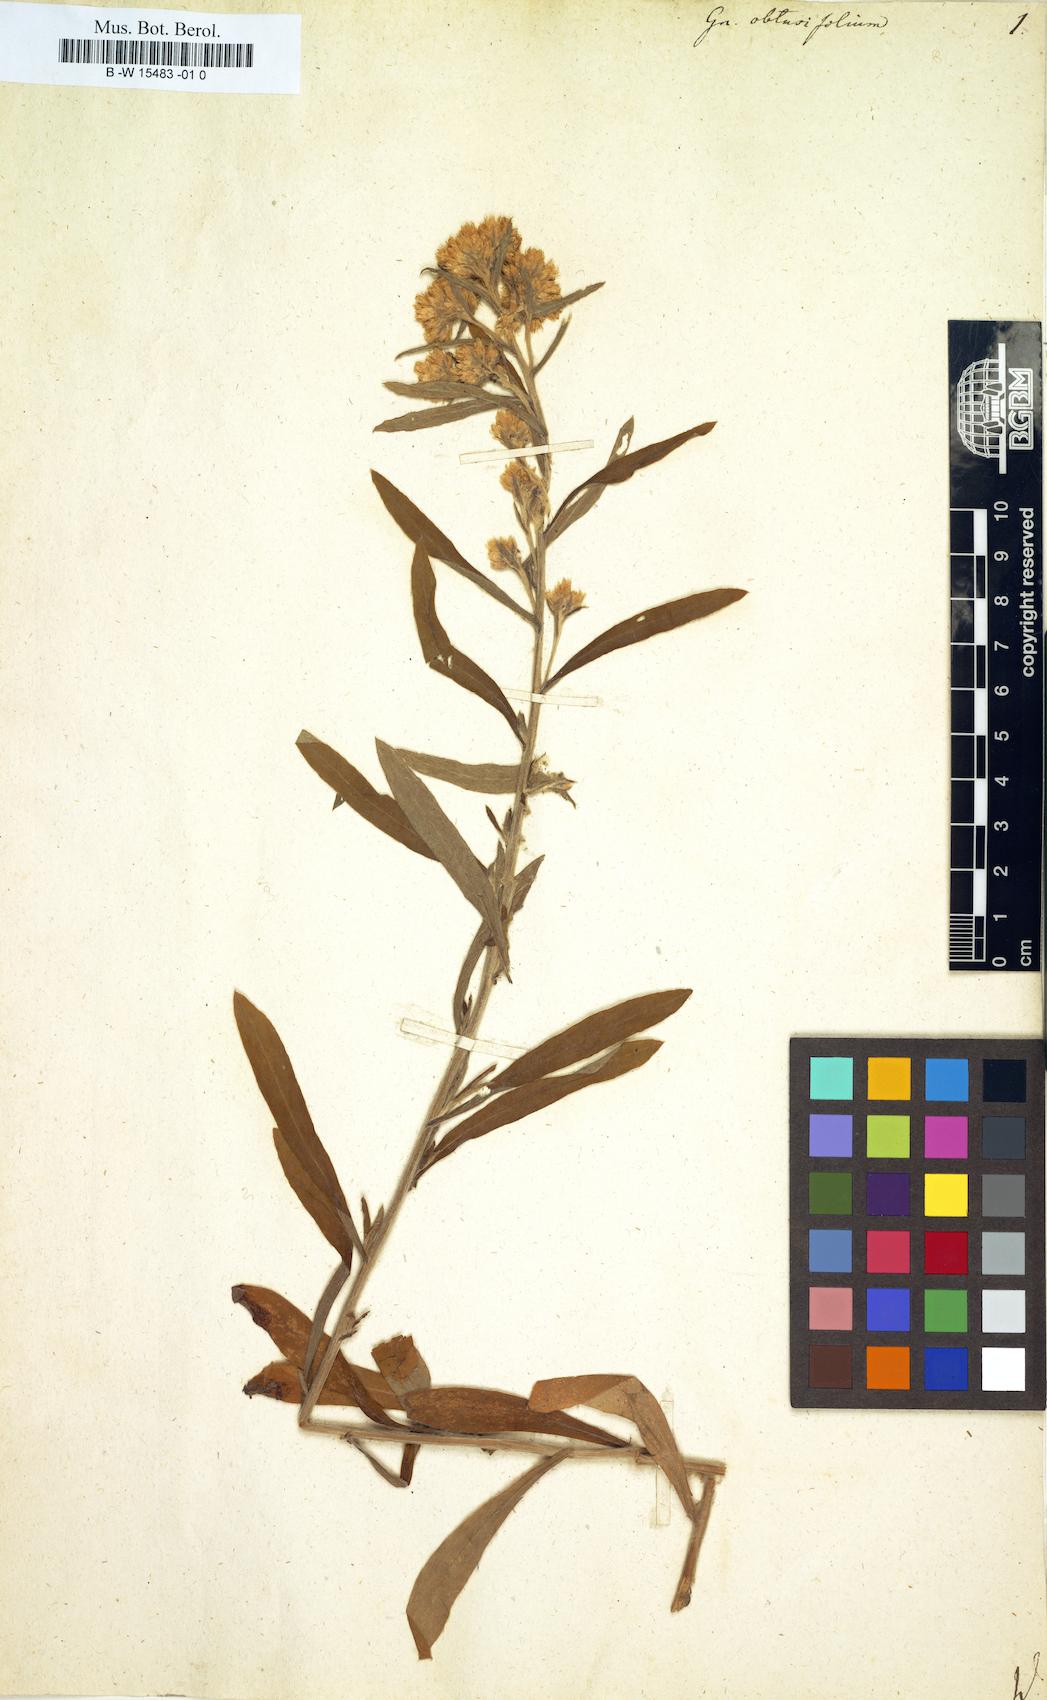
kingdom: Plantae
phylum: Tracheophyta
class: Magnoliopsida
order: Asterales
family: Asteraceae
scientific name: Asteraceae
